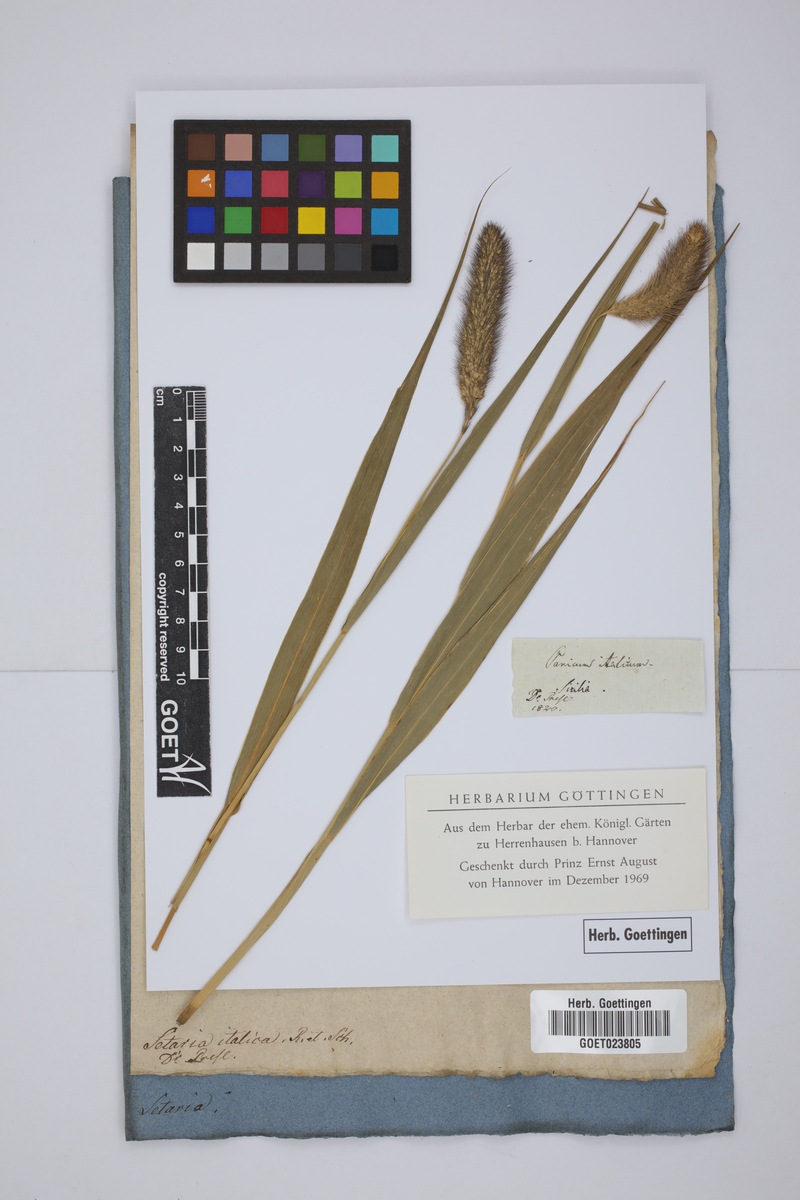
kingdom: Plantae
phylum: Tracheophyta
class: Liliopsida
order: Poales
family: Poaceae
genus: Setaria
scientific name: Setaria italica
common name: Foxtail bristle-grass
